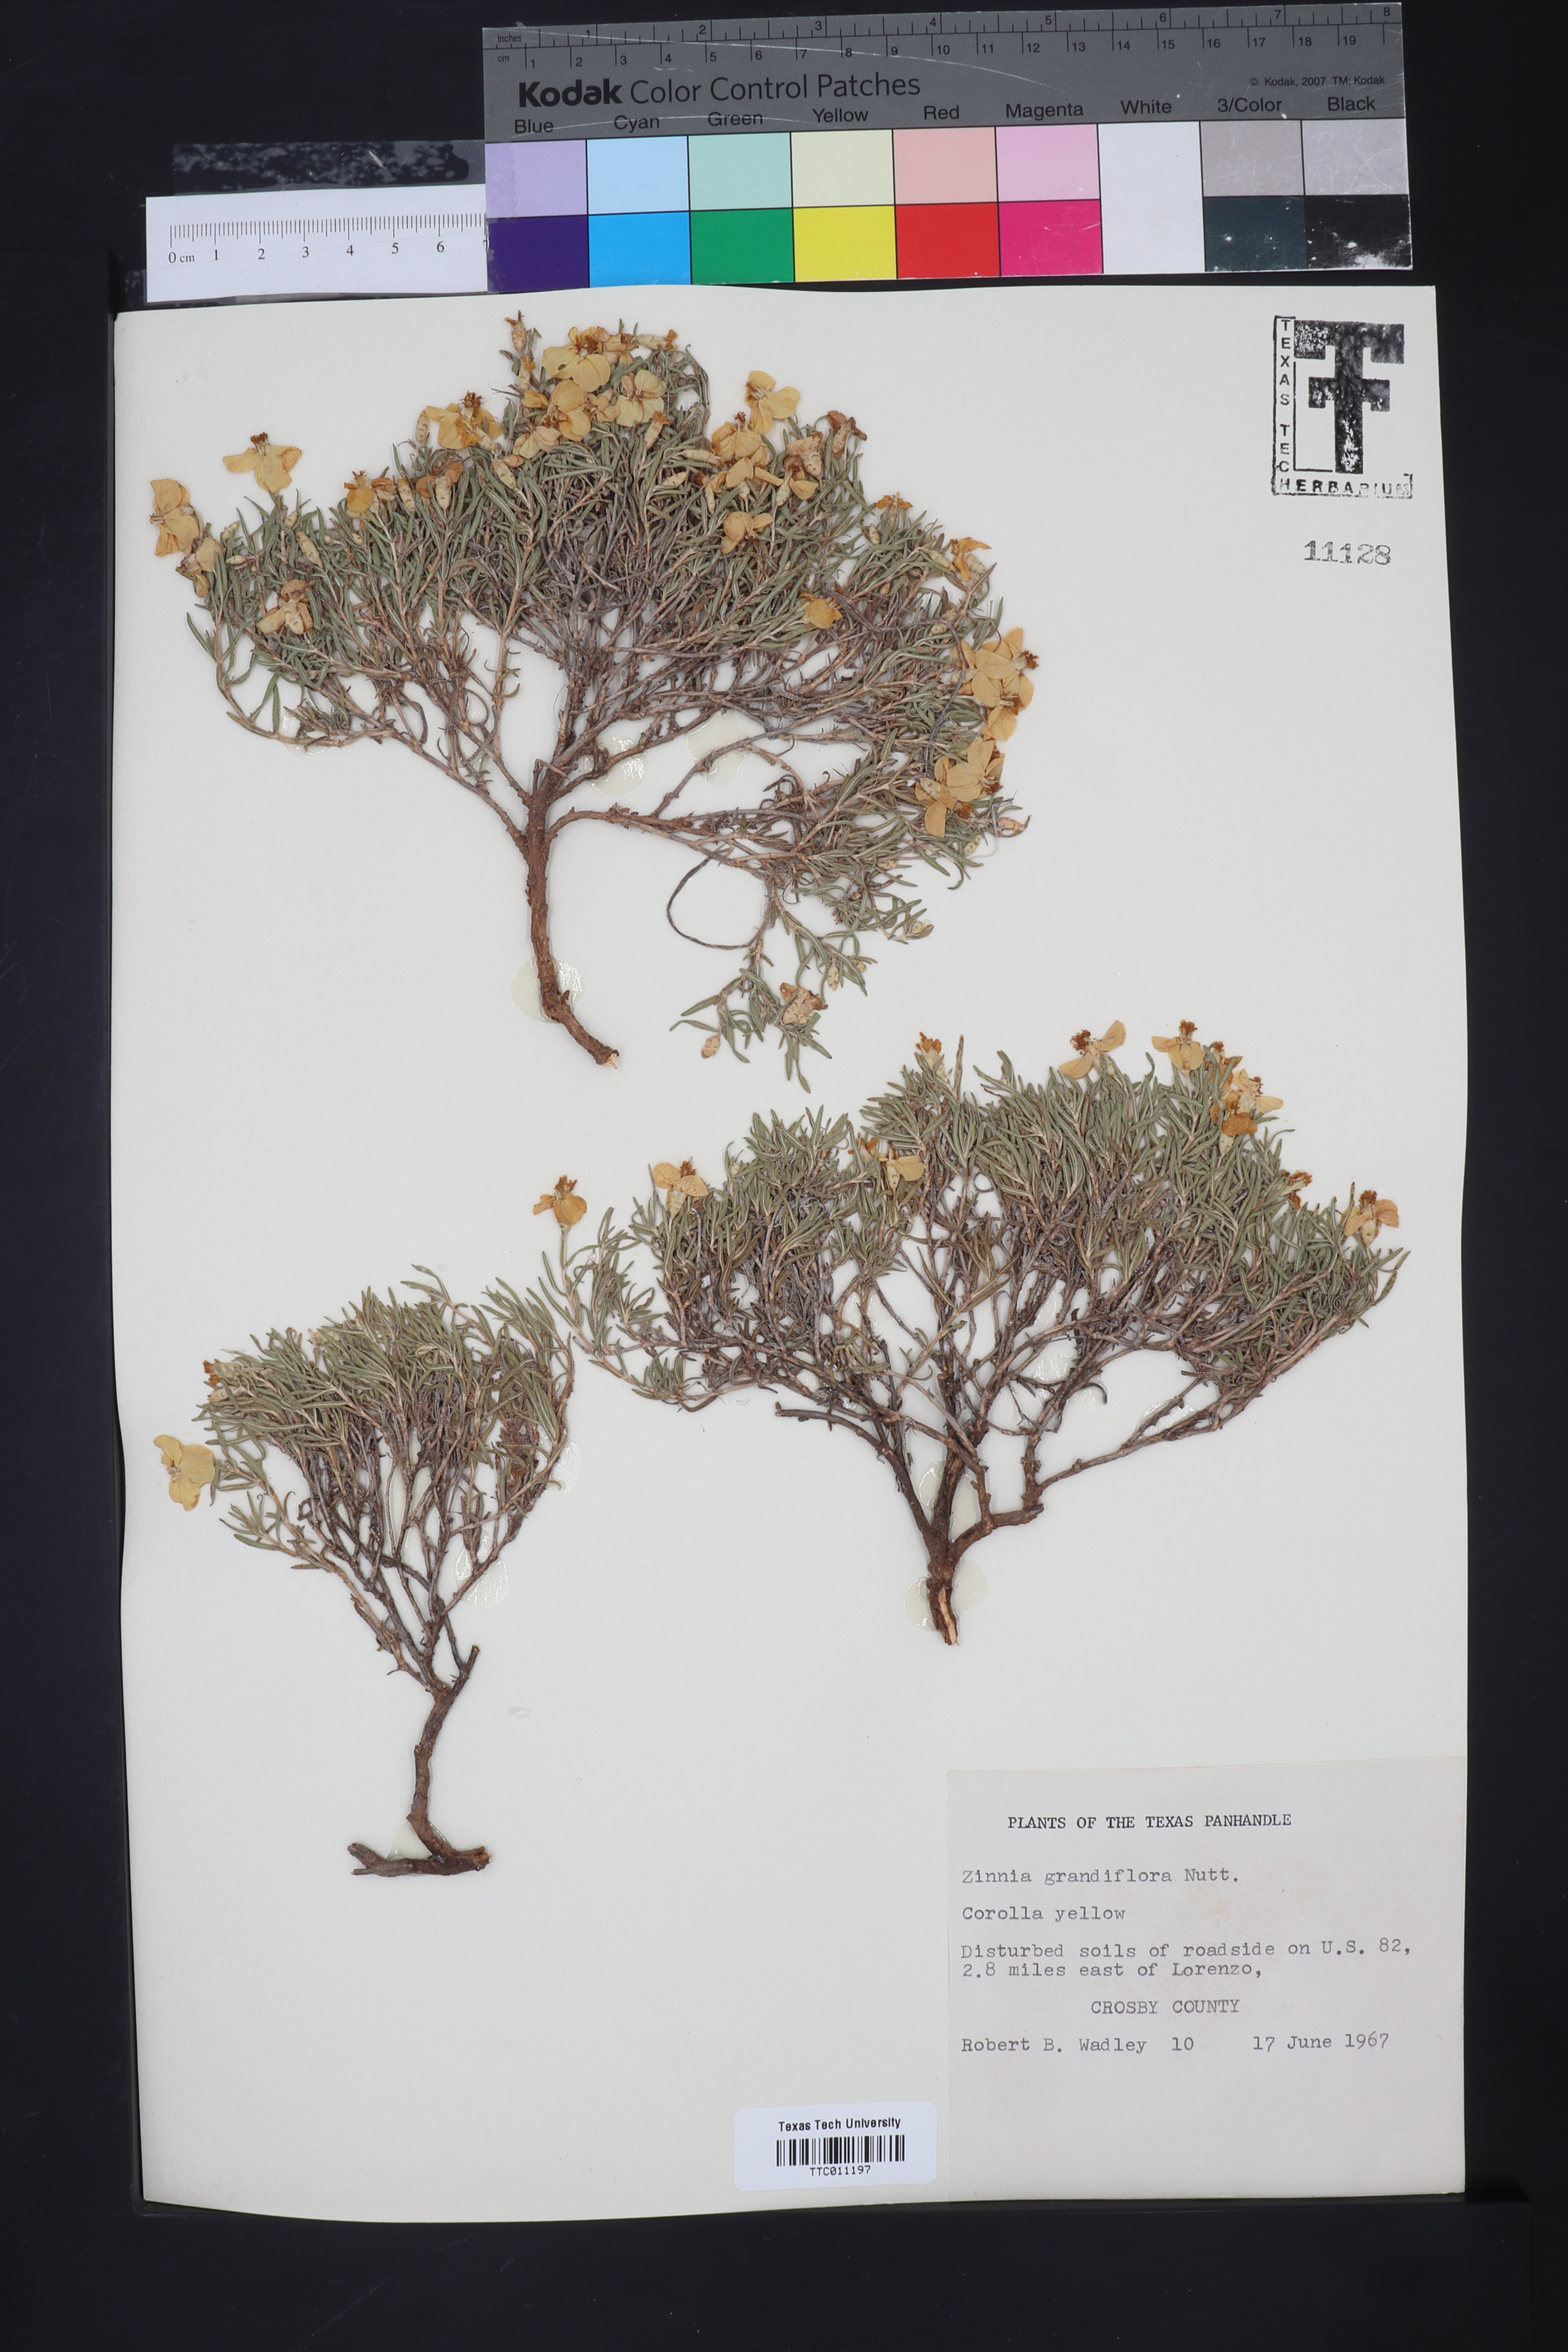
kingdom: Plantae
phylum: Tracheophyta
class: Magnoliopsida
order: Asterales
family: Asteraceae
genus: Zinnia
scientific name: Zinnia grandiflora
